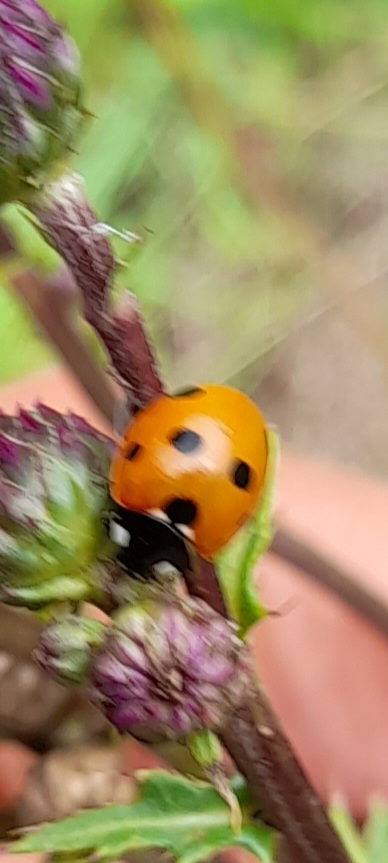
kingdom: Animalia
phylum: Arthropoda
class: Insecta
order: Coleoptera
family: Coccinellidae
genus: Coccinella
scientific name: Coccinella septempunctata
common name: Syvplettet mariehøne
